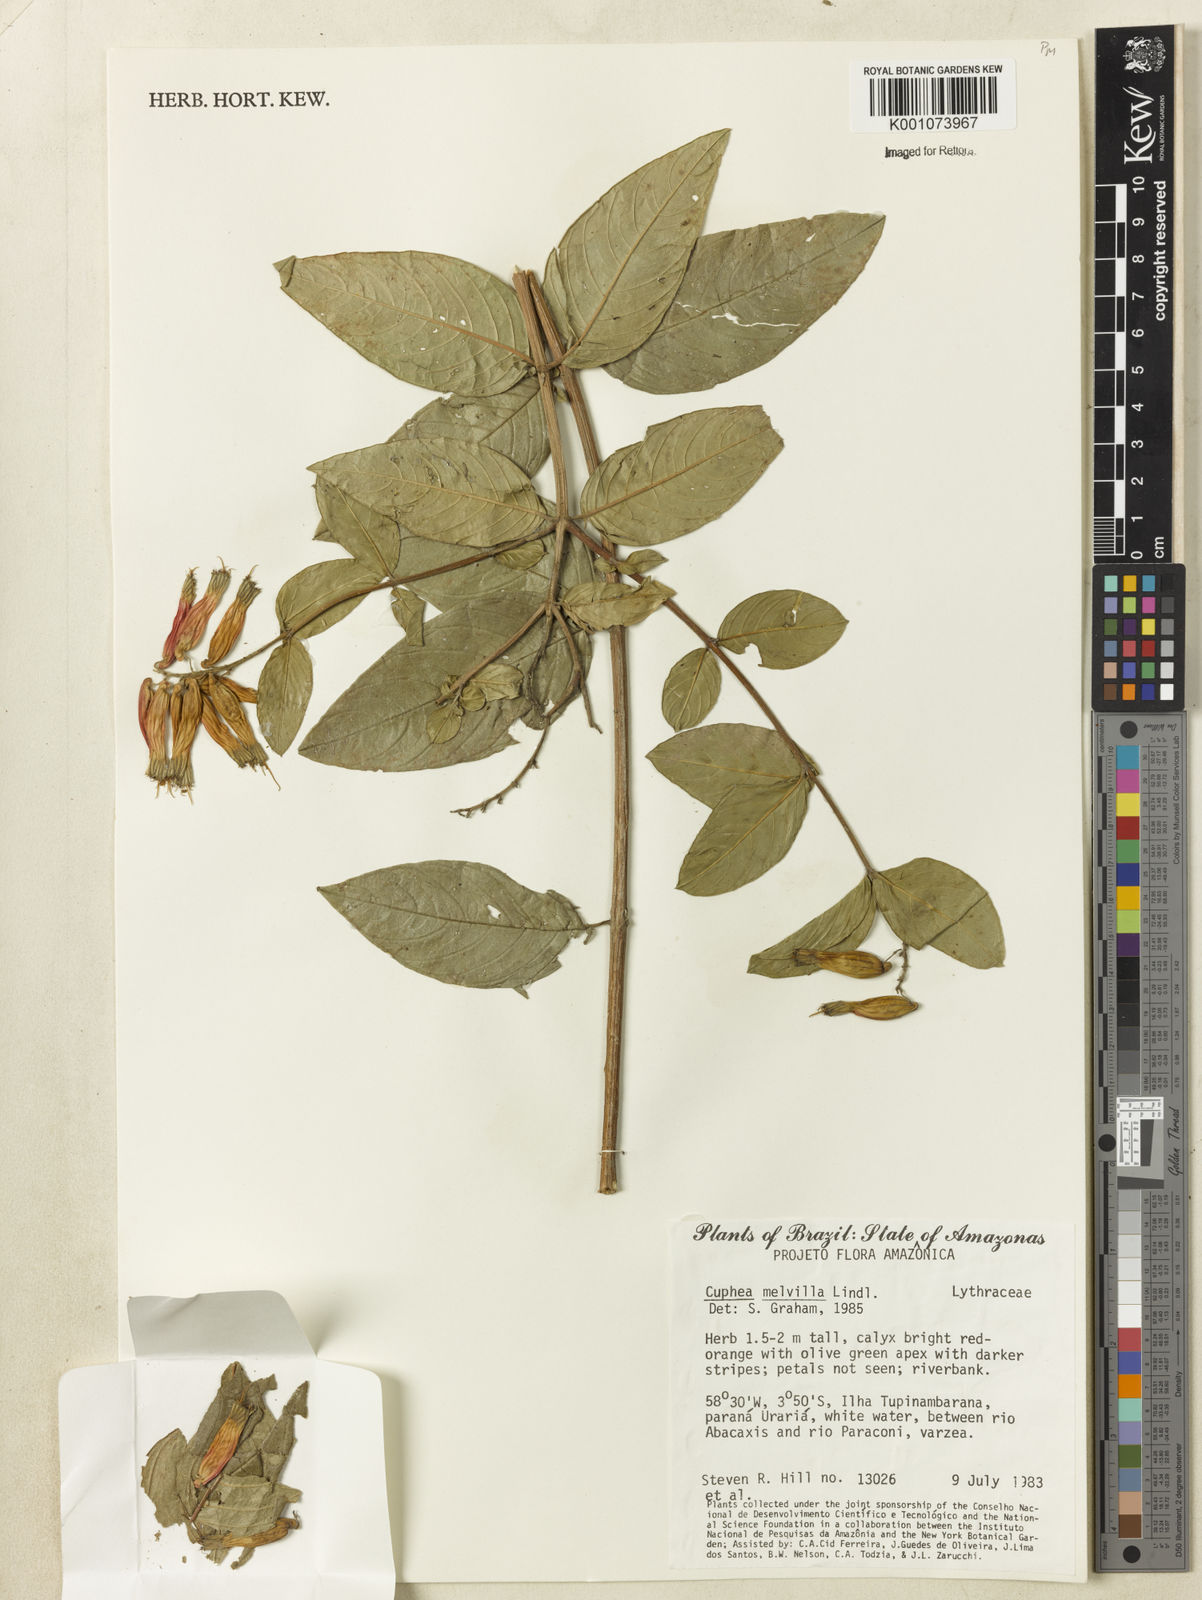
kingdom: Plantae
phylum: Tracheophyta
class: Magnoliopsida
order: Myrtales
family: Lythraceae
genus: Cuphea
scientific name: Cuphea melvilla
